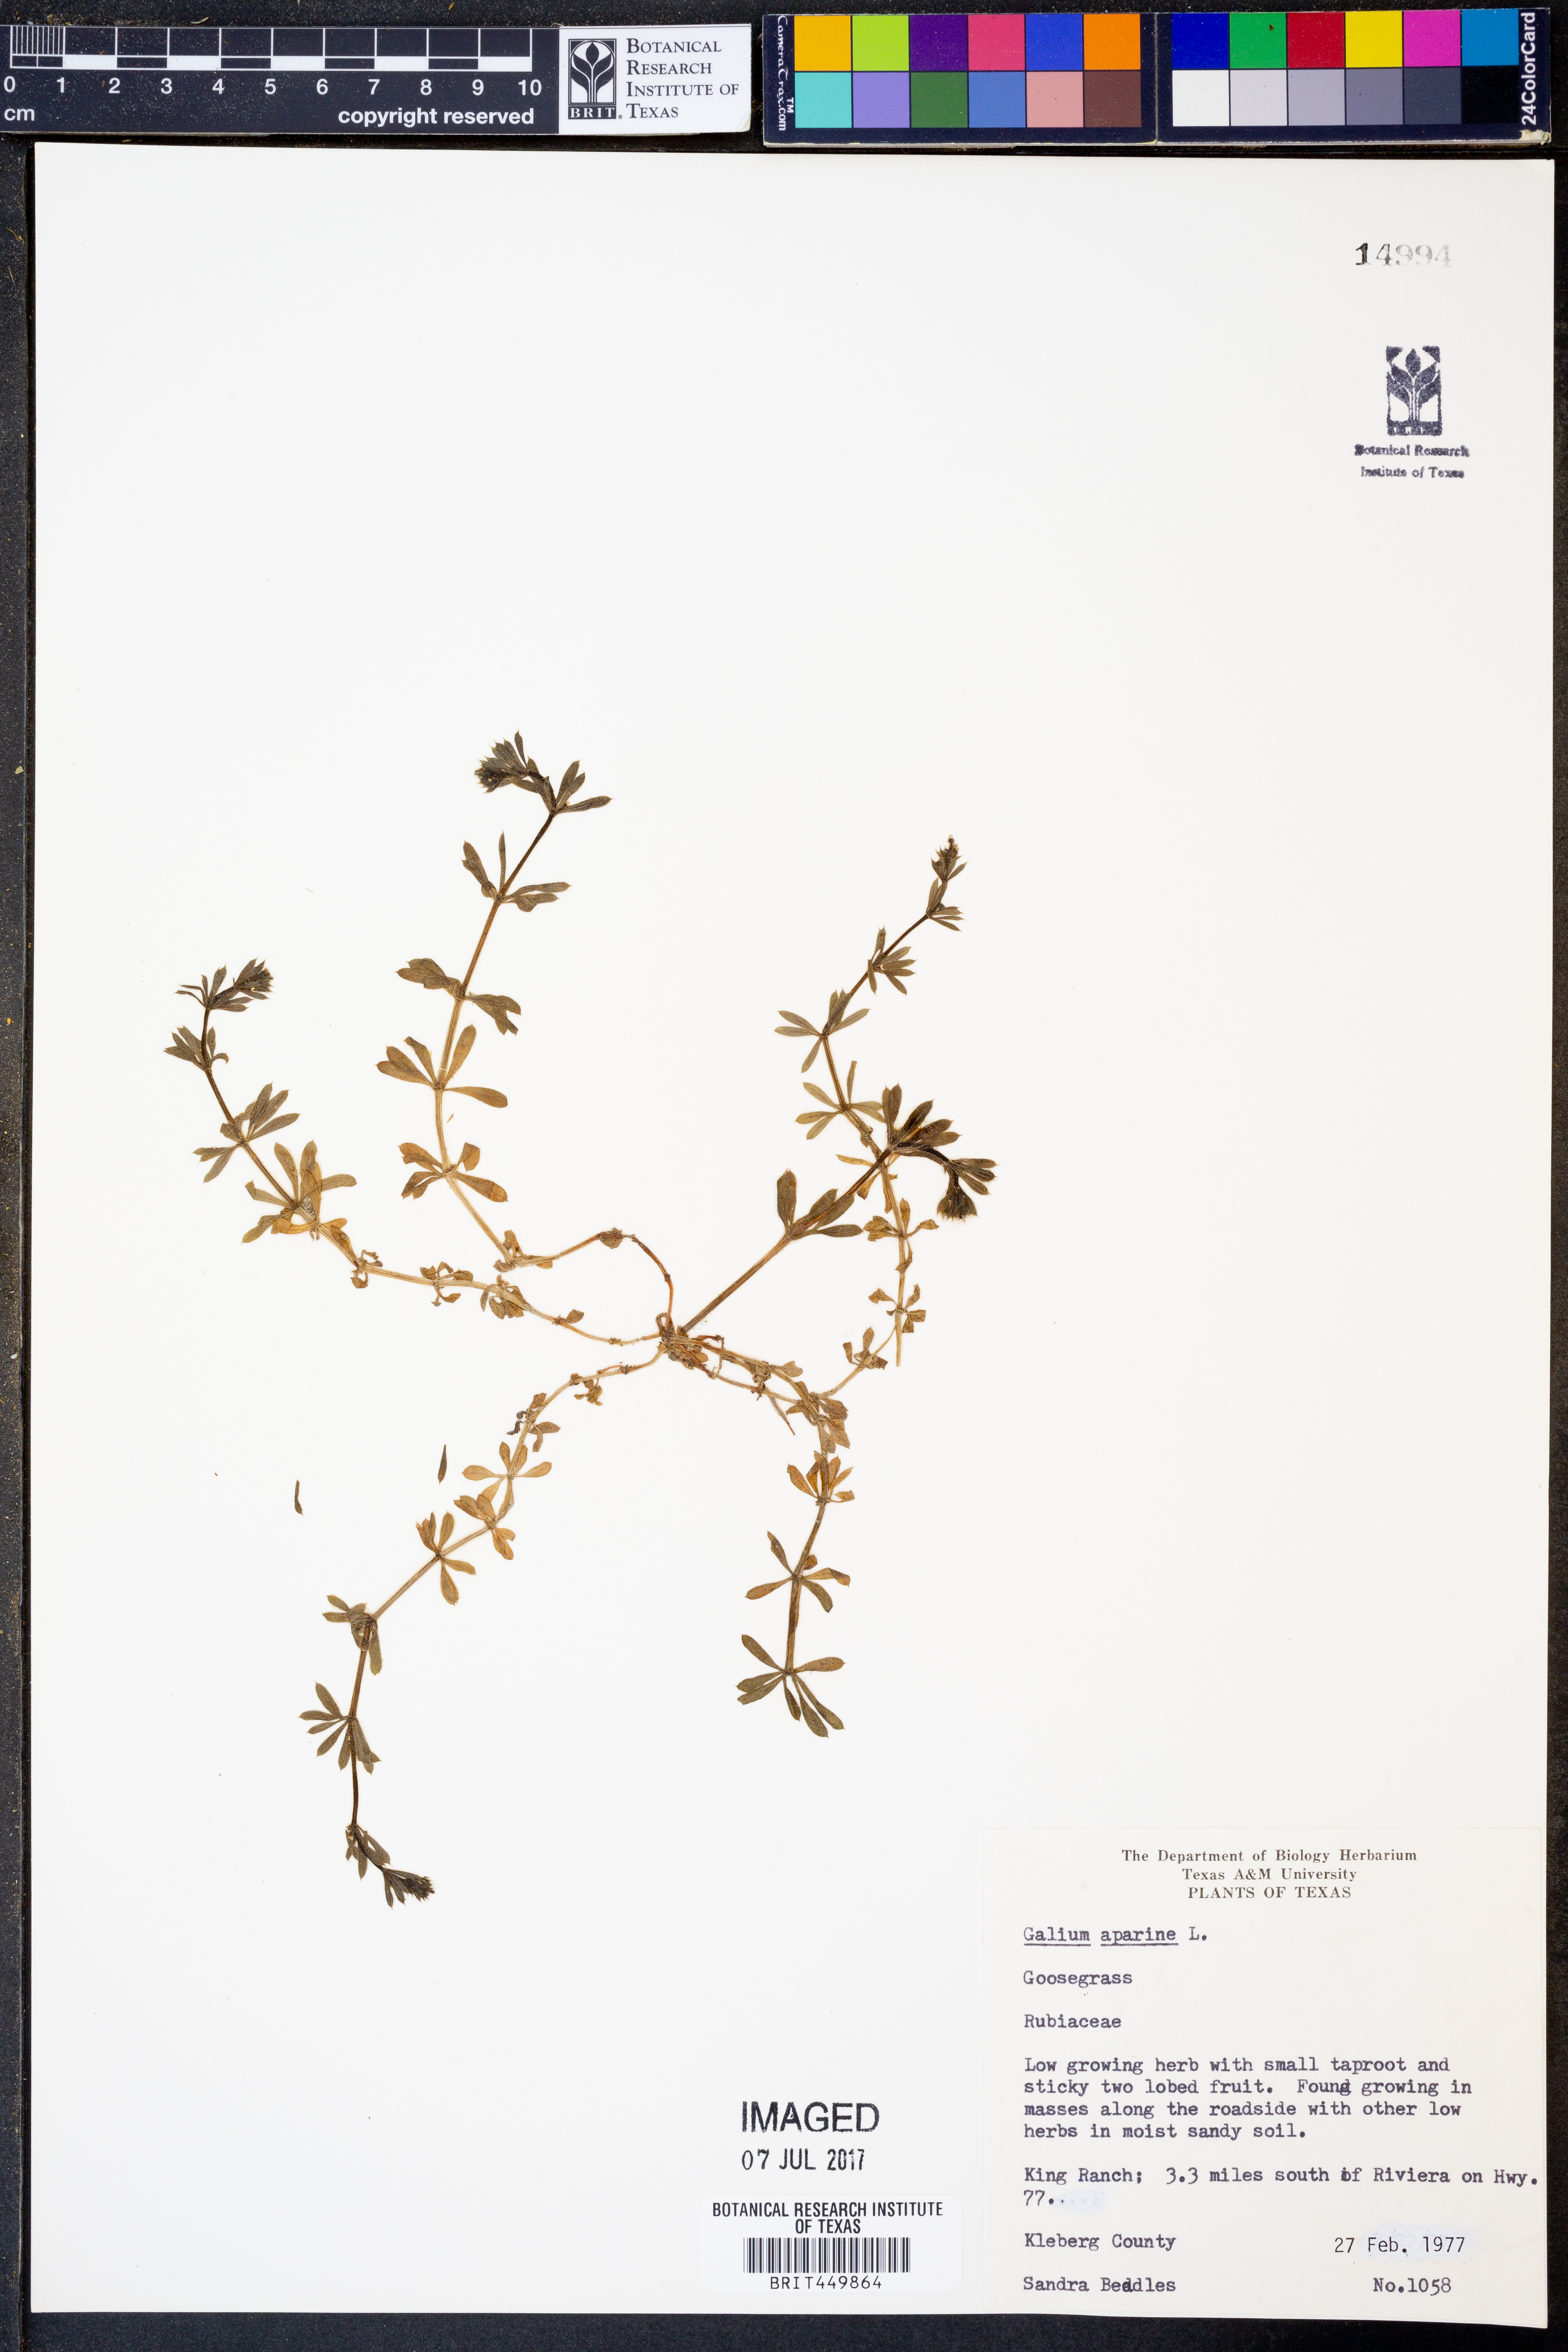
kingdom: Plantae
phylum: Tracheophyta
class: Magnoliopsida
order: Gentianales
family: Rubiaceae
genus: Galium
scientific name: Galium aparine
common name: Cleavers
